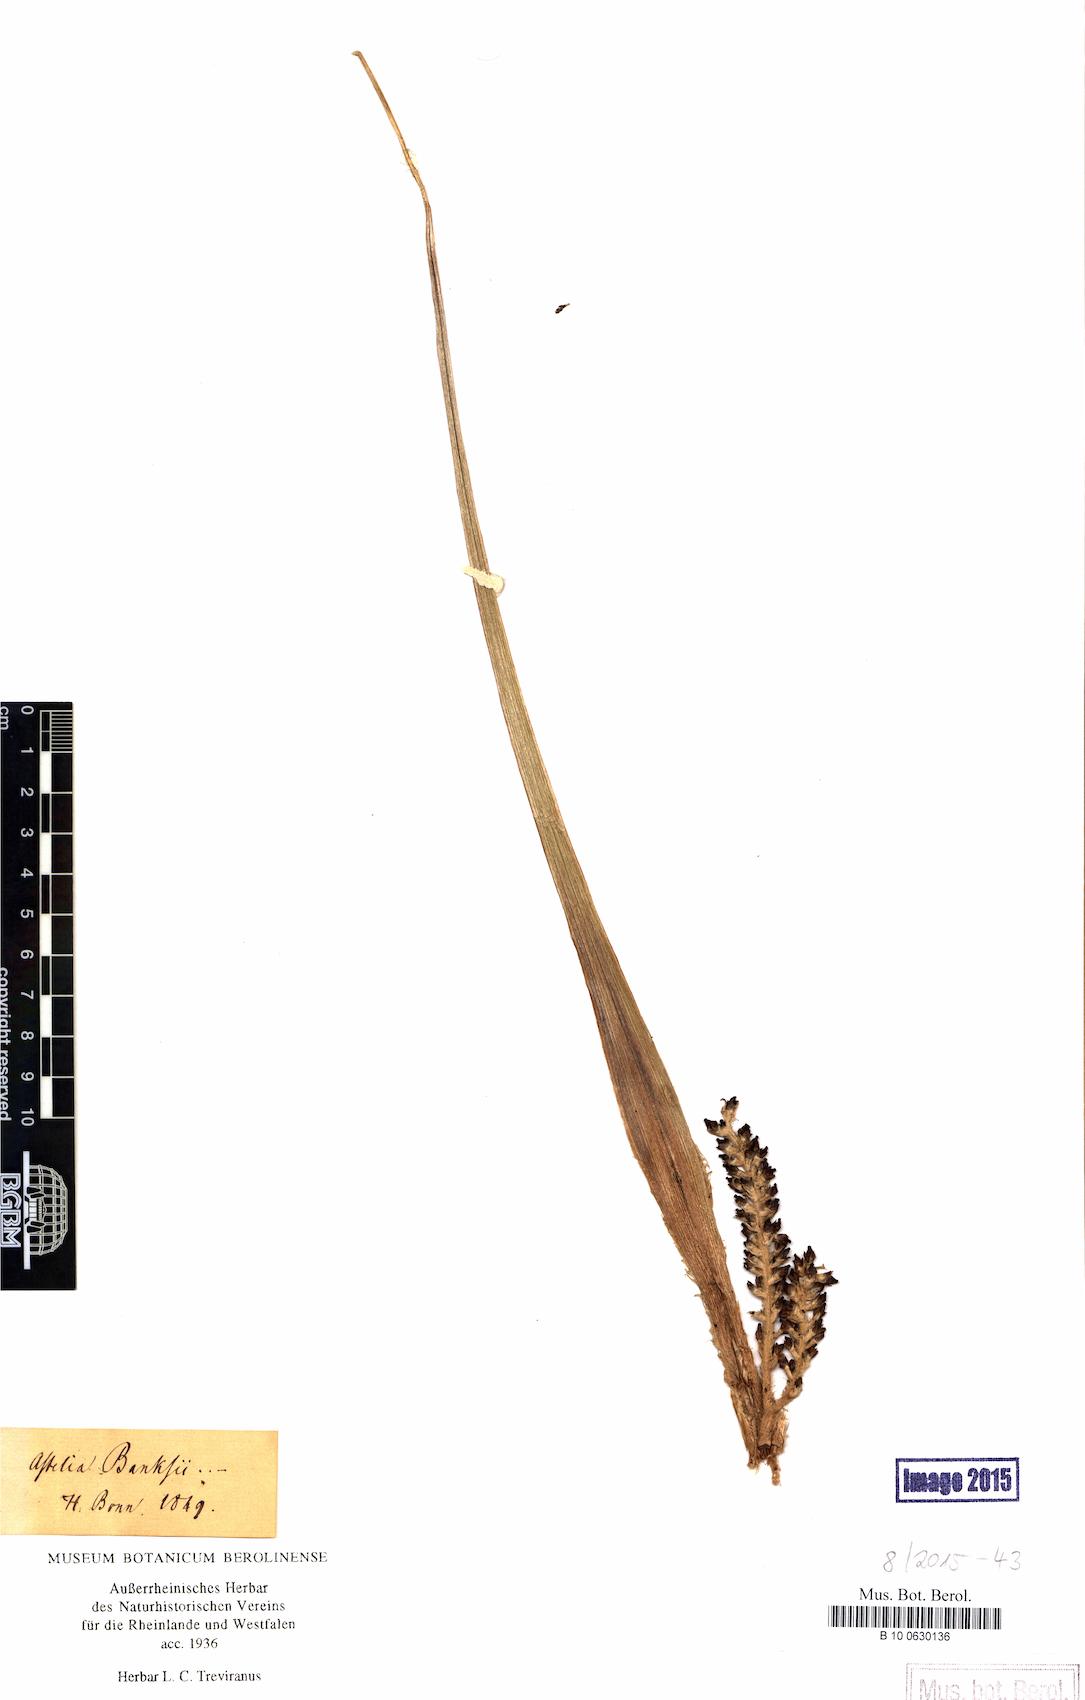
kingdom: Plantae
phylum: Tracheophyta
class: Liliopsida
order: Asparagales
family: Asteliaceae
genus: Astelia
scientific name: Astelia banksii
